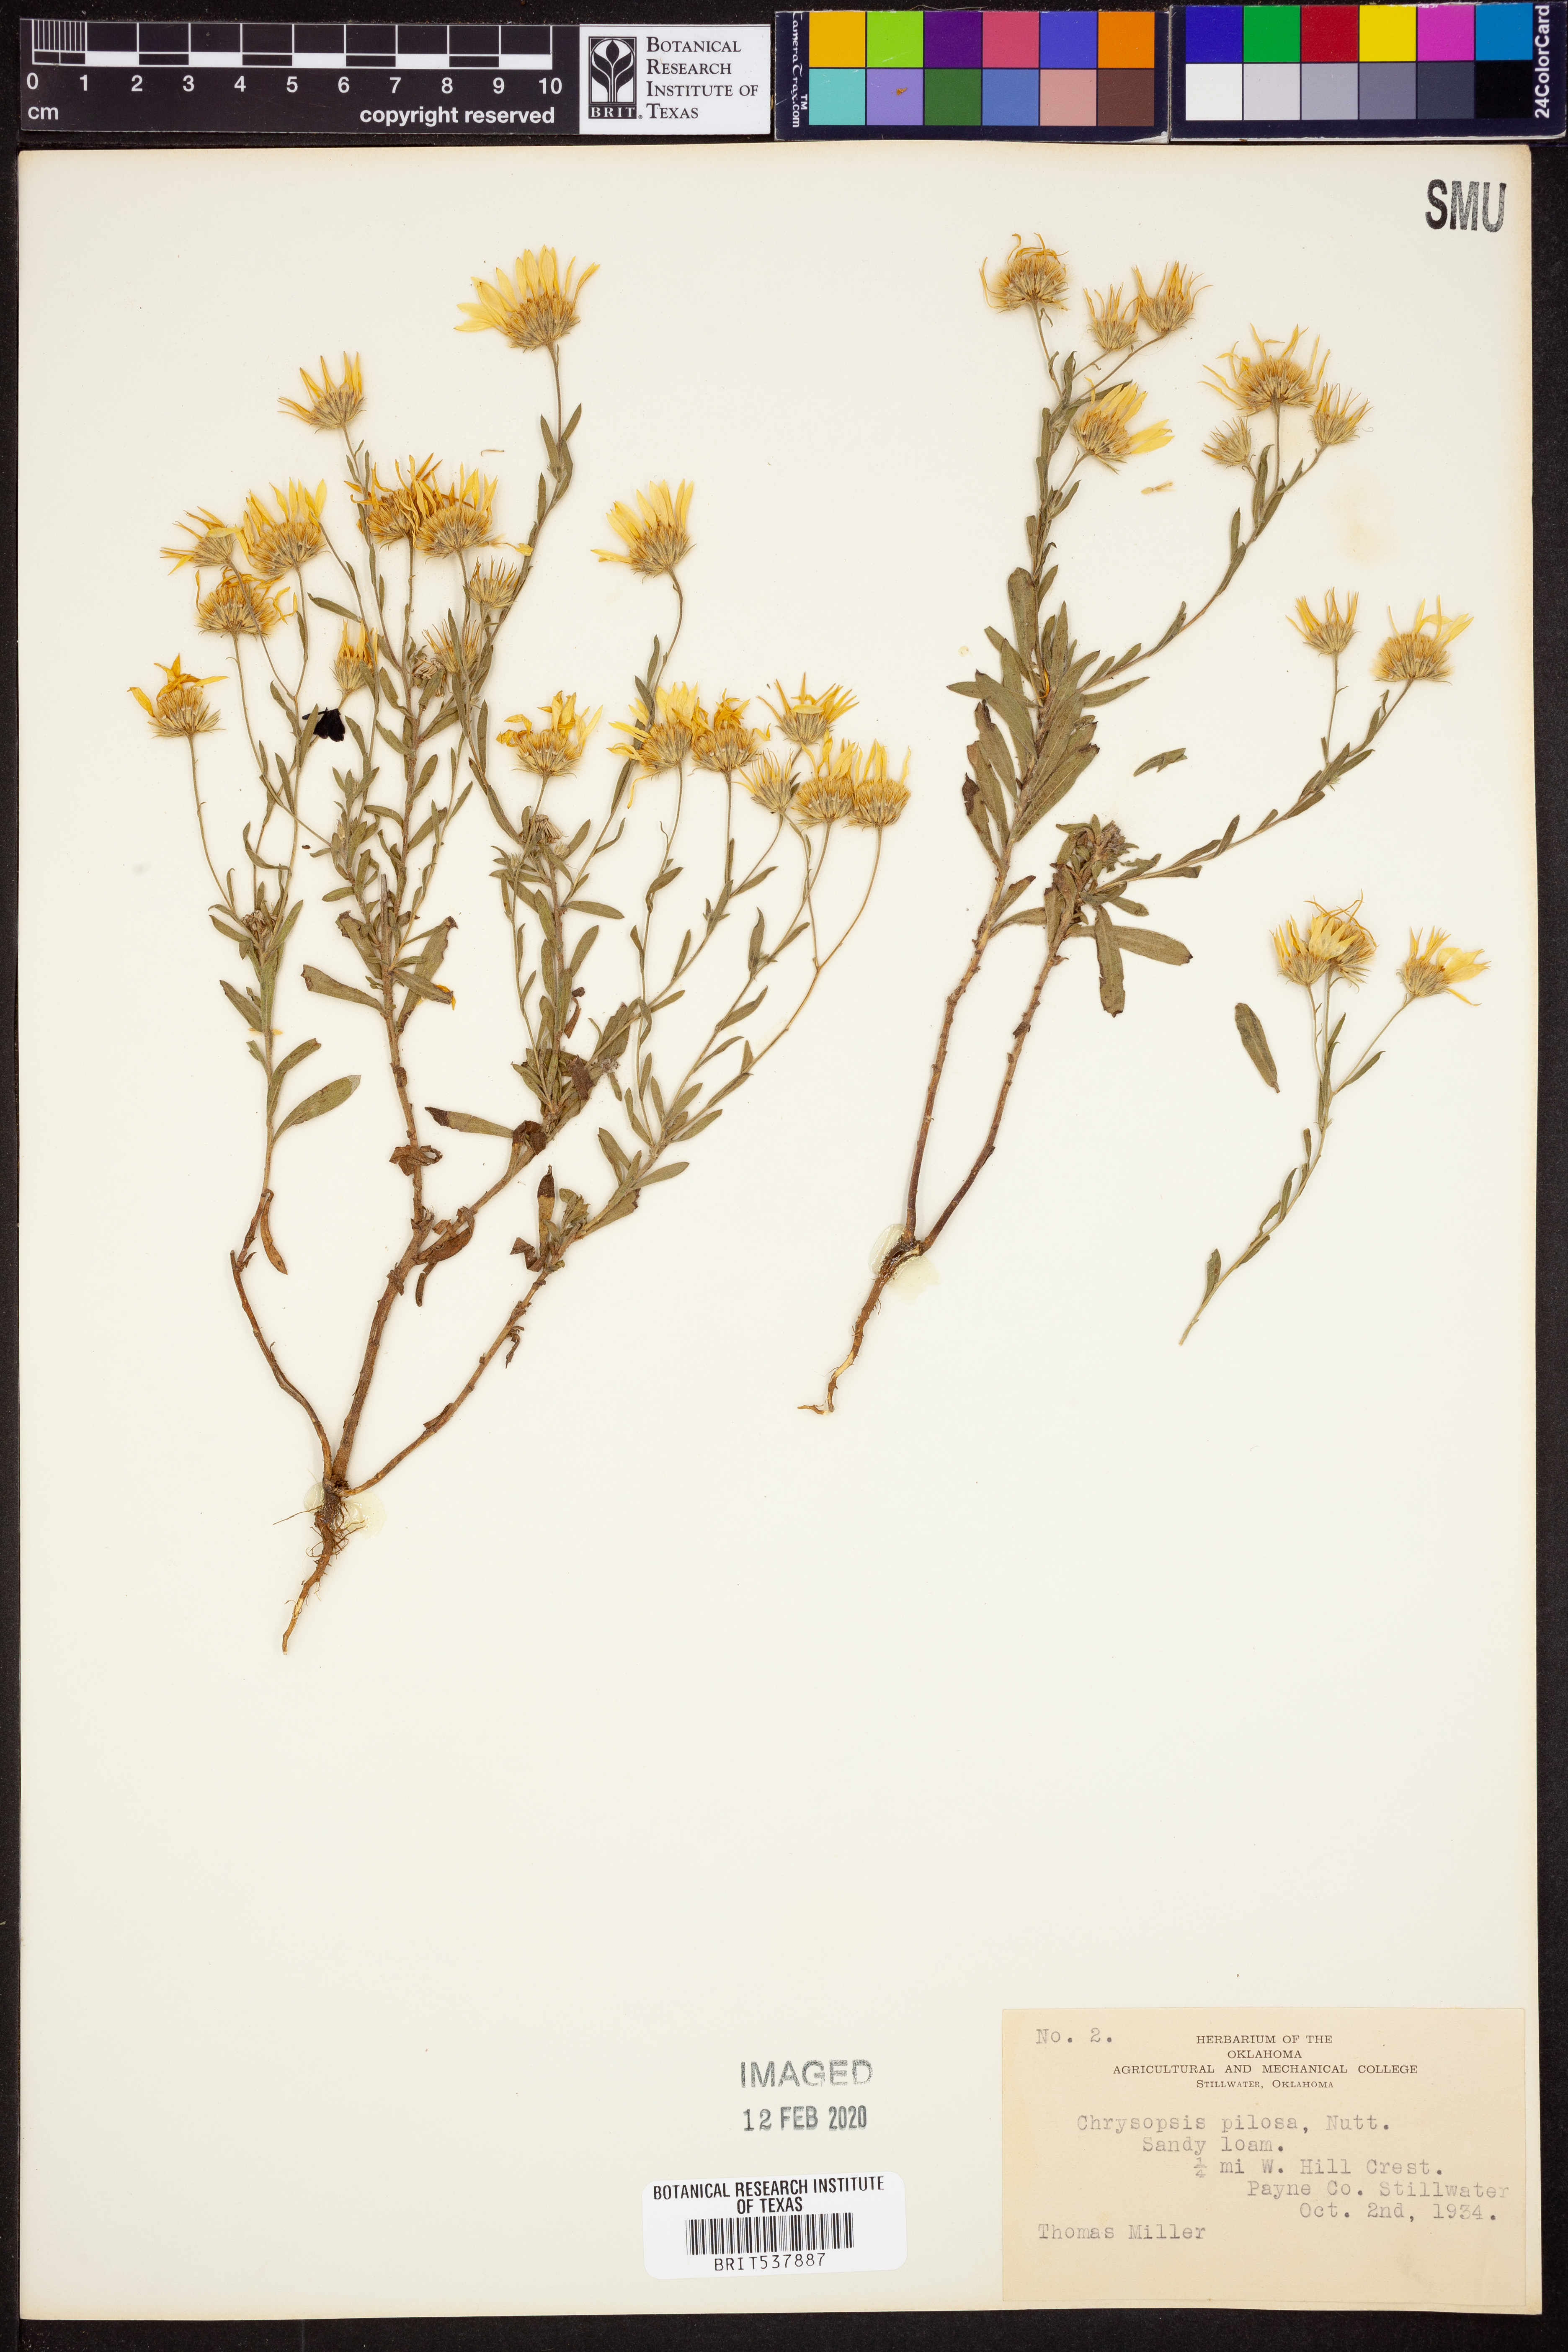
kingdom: Plantae
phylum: Tracheophyta
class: Magnoliopsida
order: Asterales
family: Asteraceae
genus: Bradburia
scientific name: Bradburia pilosa
